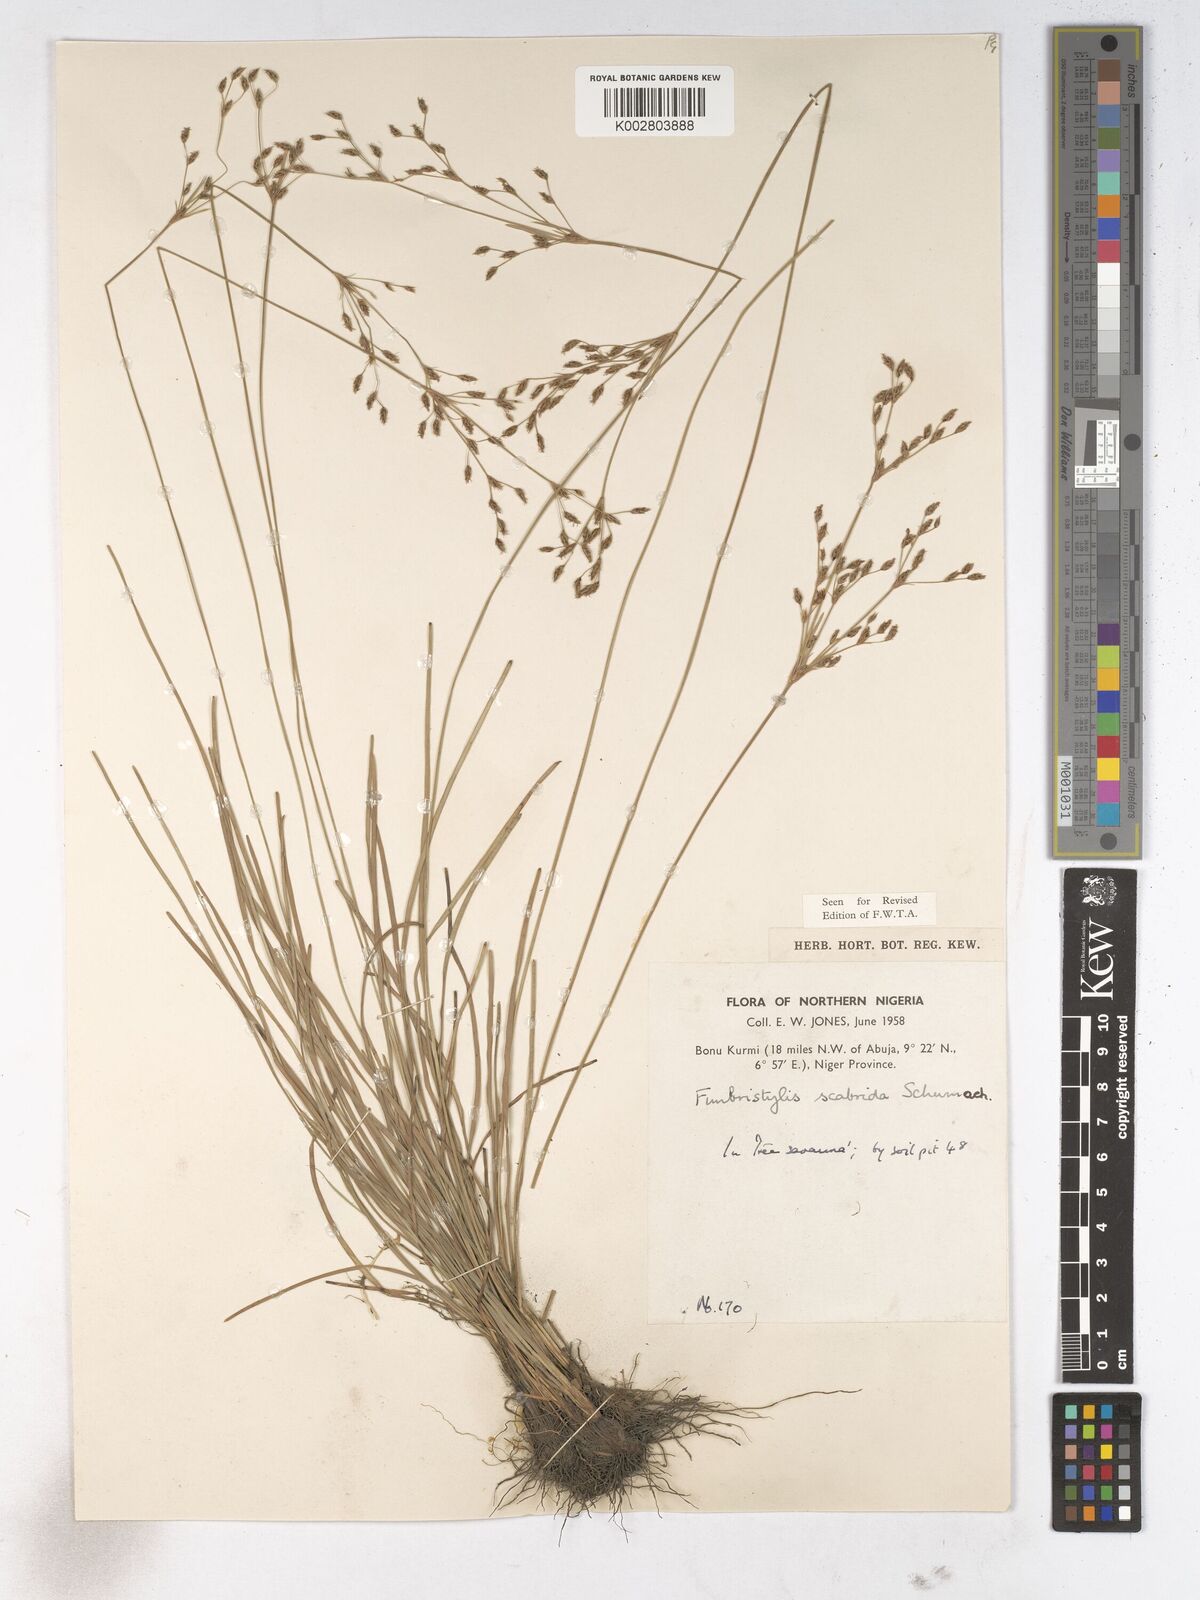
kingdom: Plantae
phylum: Tracheophyta
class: Liliopsida
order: Poales
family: Cyperaceae
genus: Fimbristylis
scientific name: Fimbristylis scabrida
